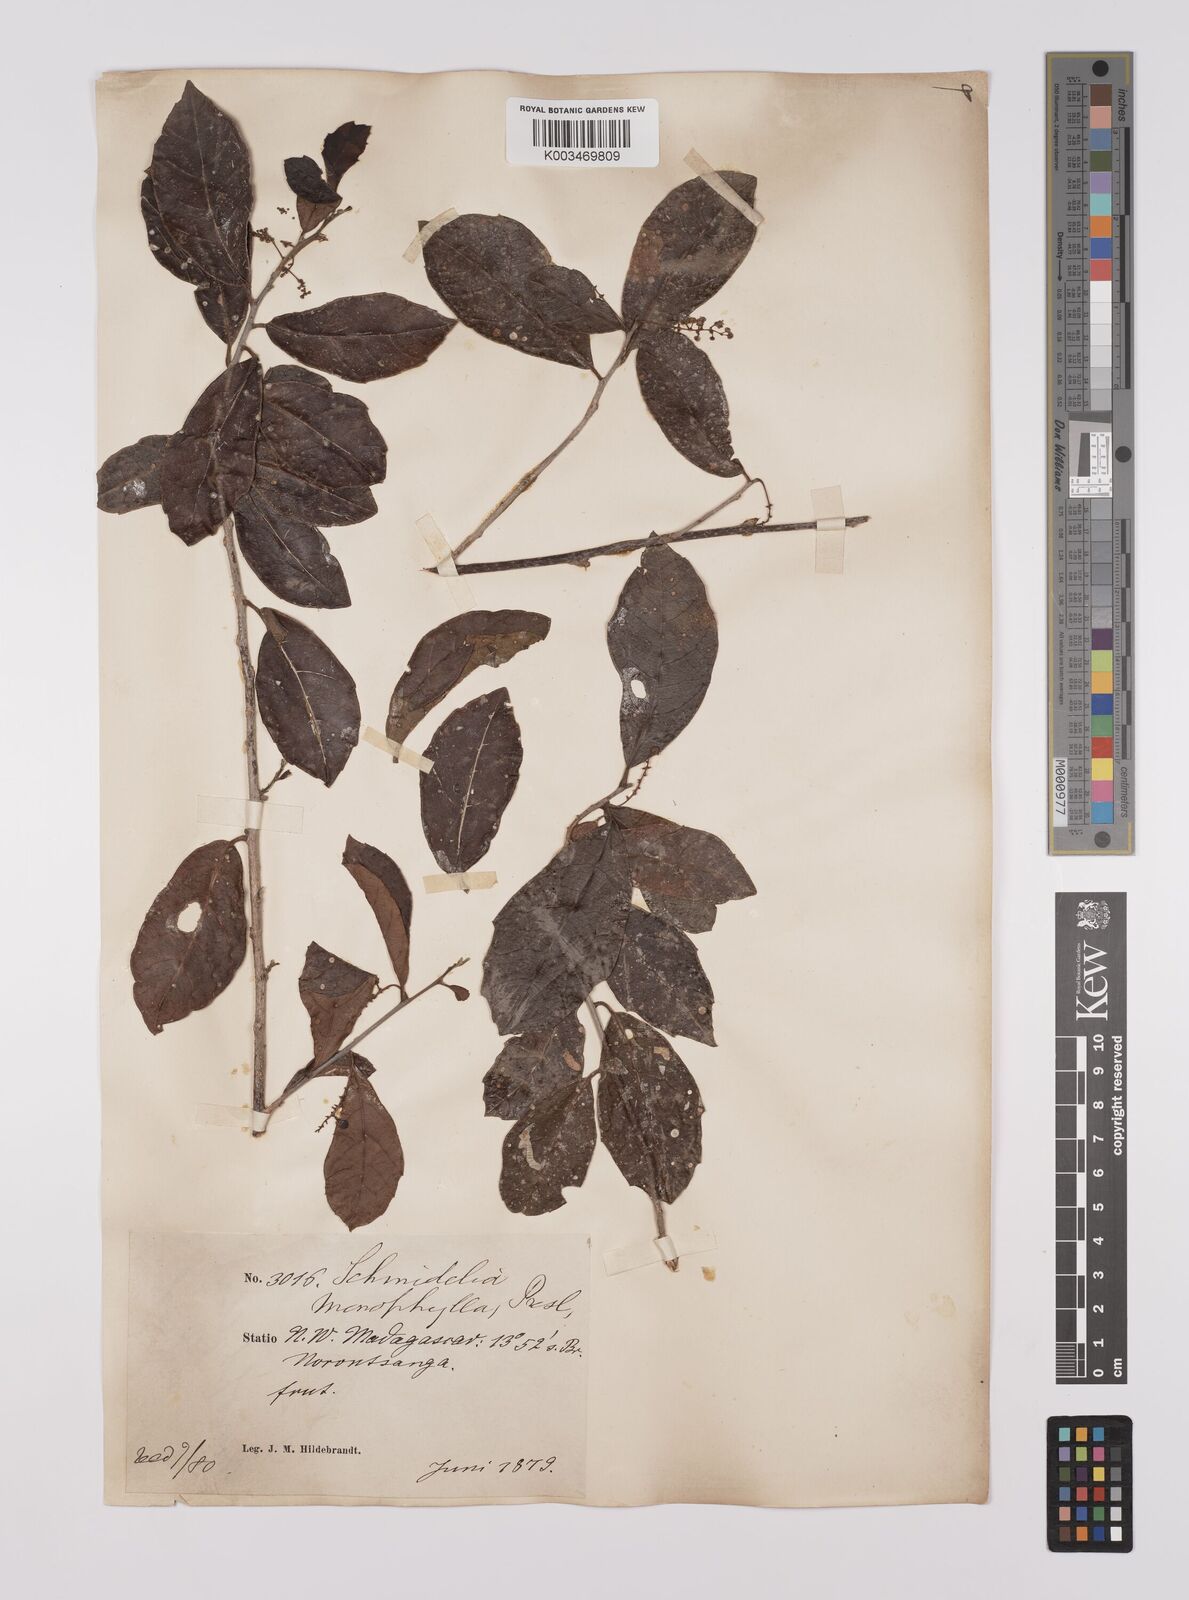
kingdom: Plantae
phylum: Tracheophyta
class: Magnoliopsida
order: Sapindales
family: Sapindaceae
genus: Allophylus
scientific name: Allophylus pervillei
